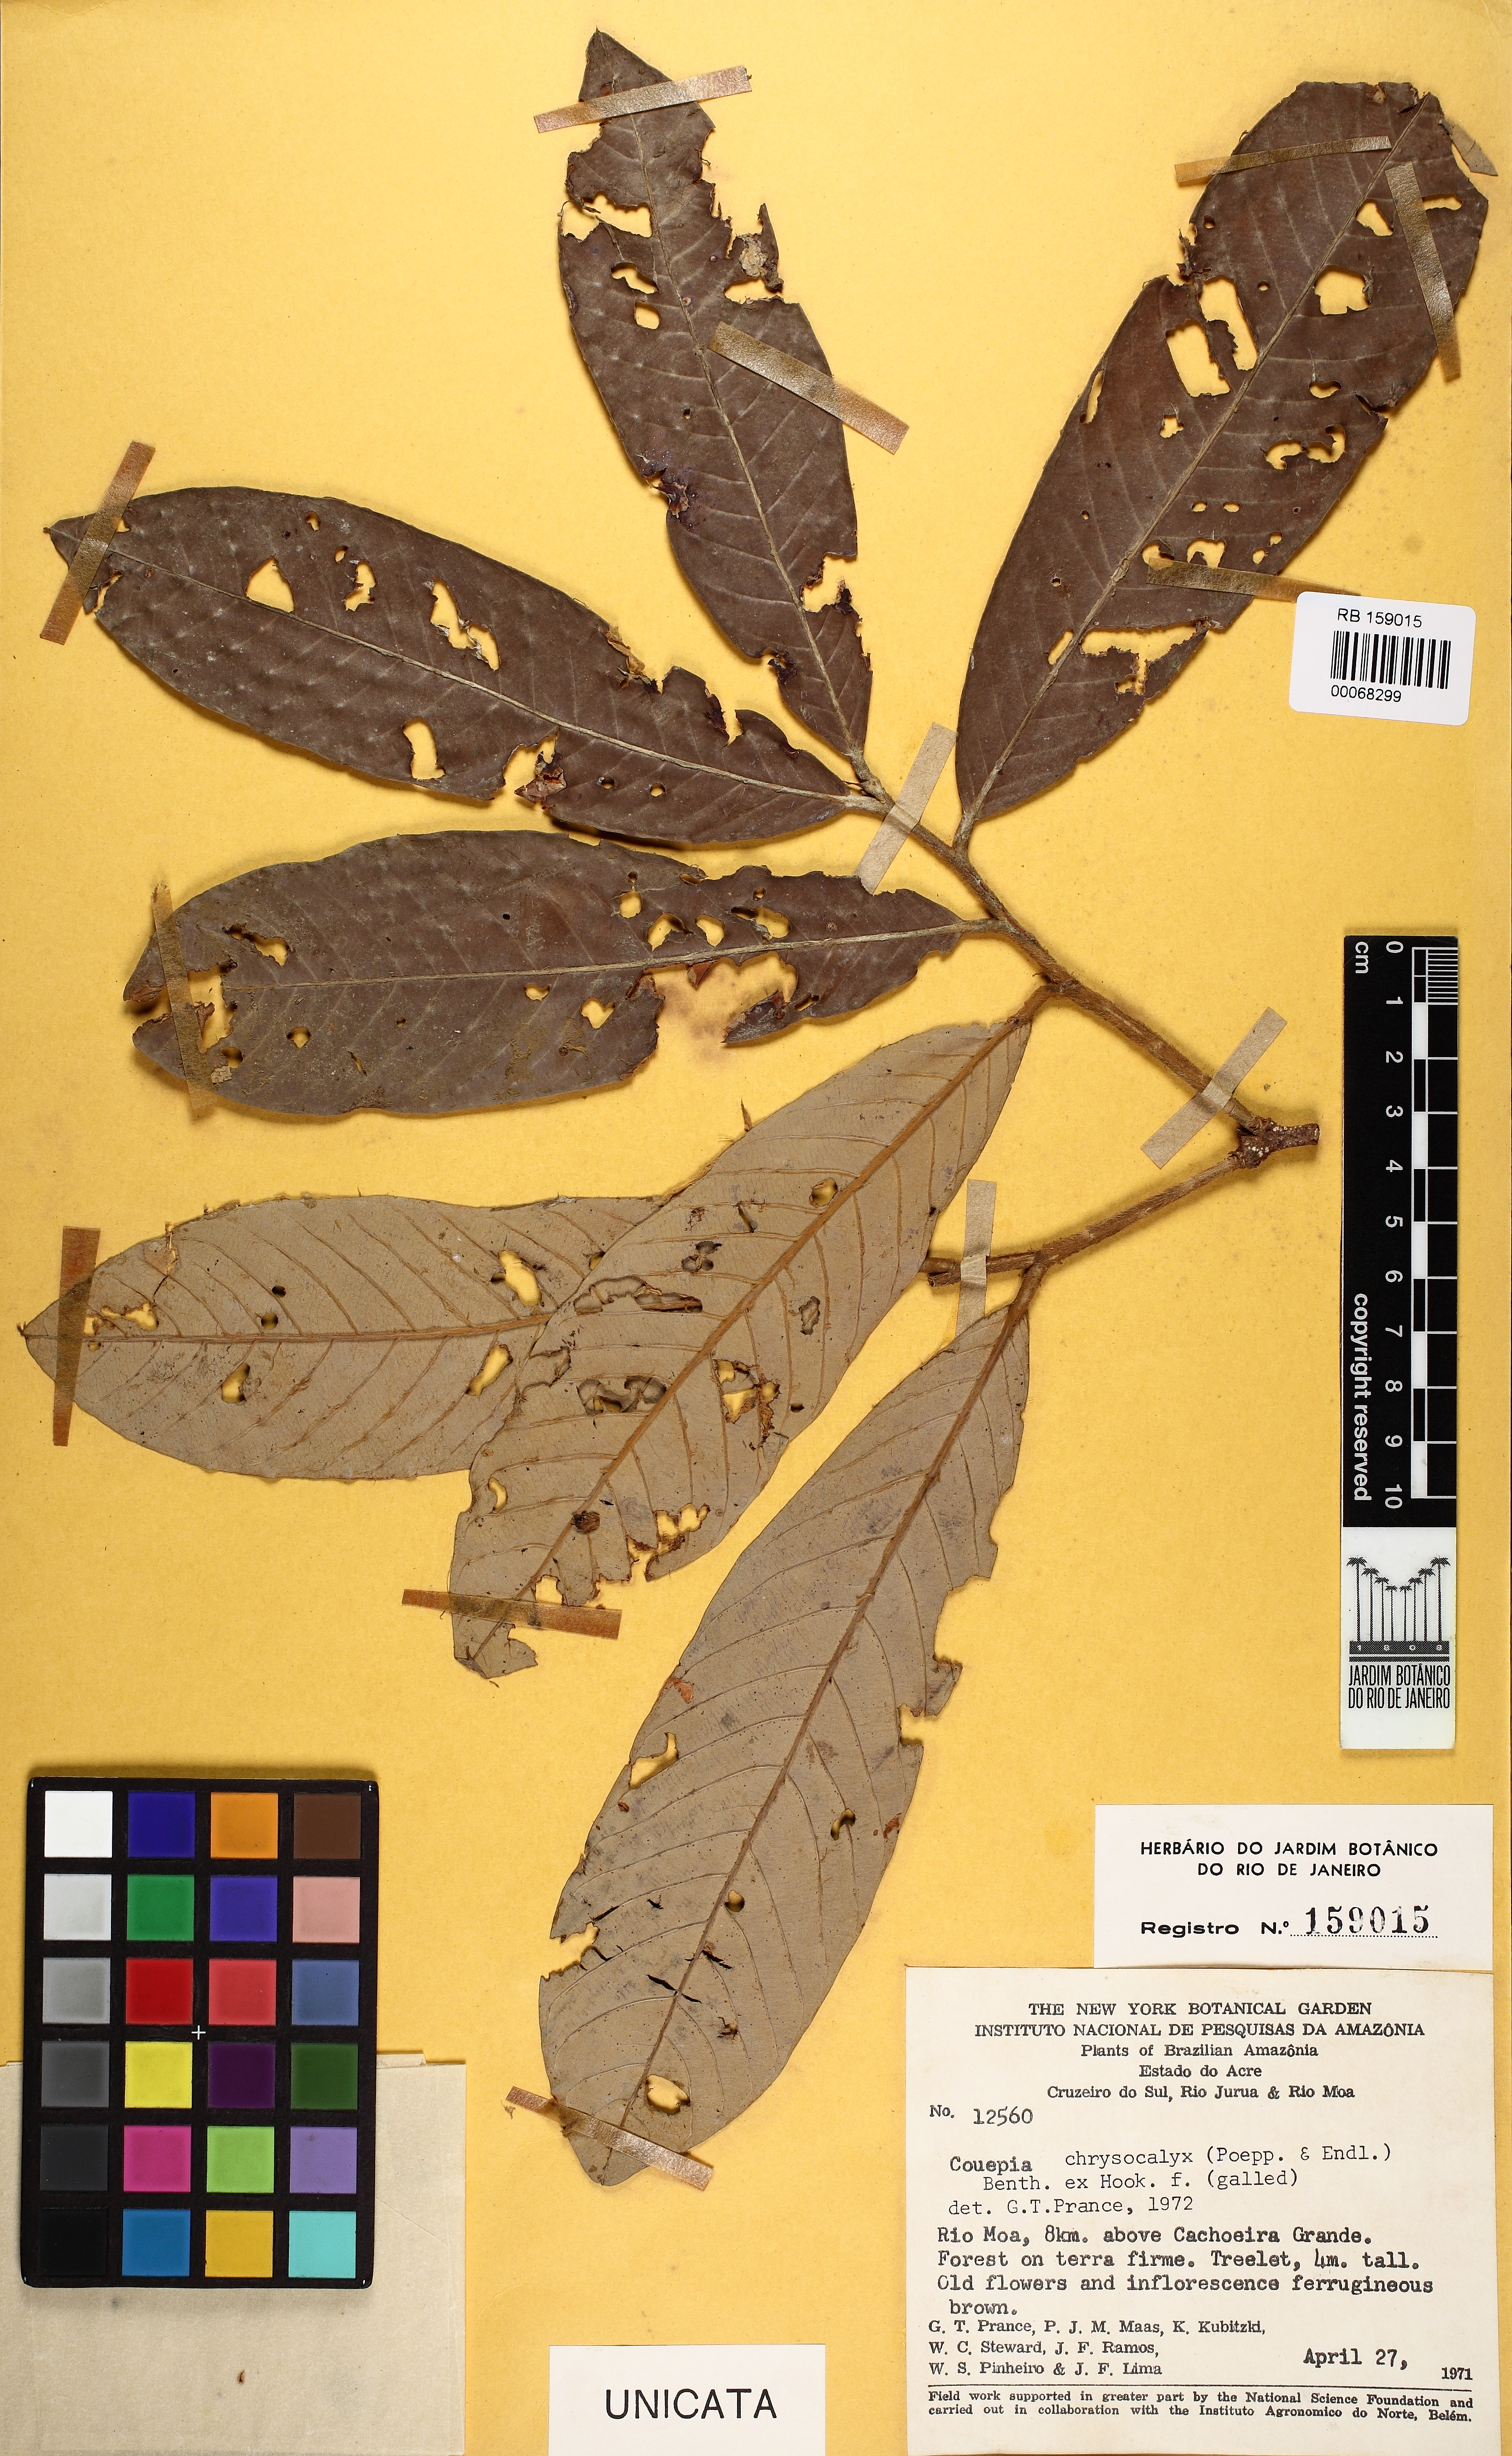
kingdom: Plantae
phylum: Tracheophyta
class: Magnoliopsida
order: Malpighiales
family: Chrysobalanaceae
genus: Couepia
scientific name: Couepia chrysocalyx
